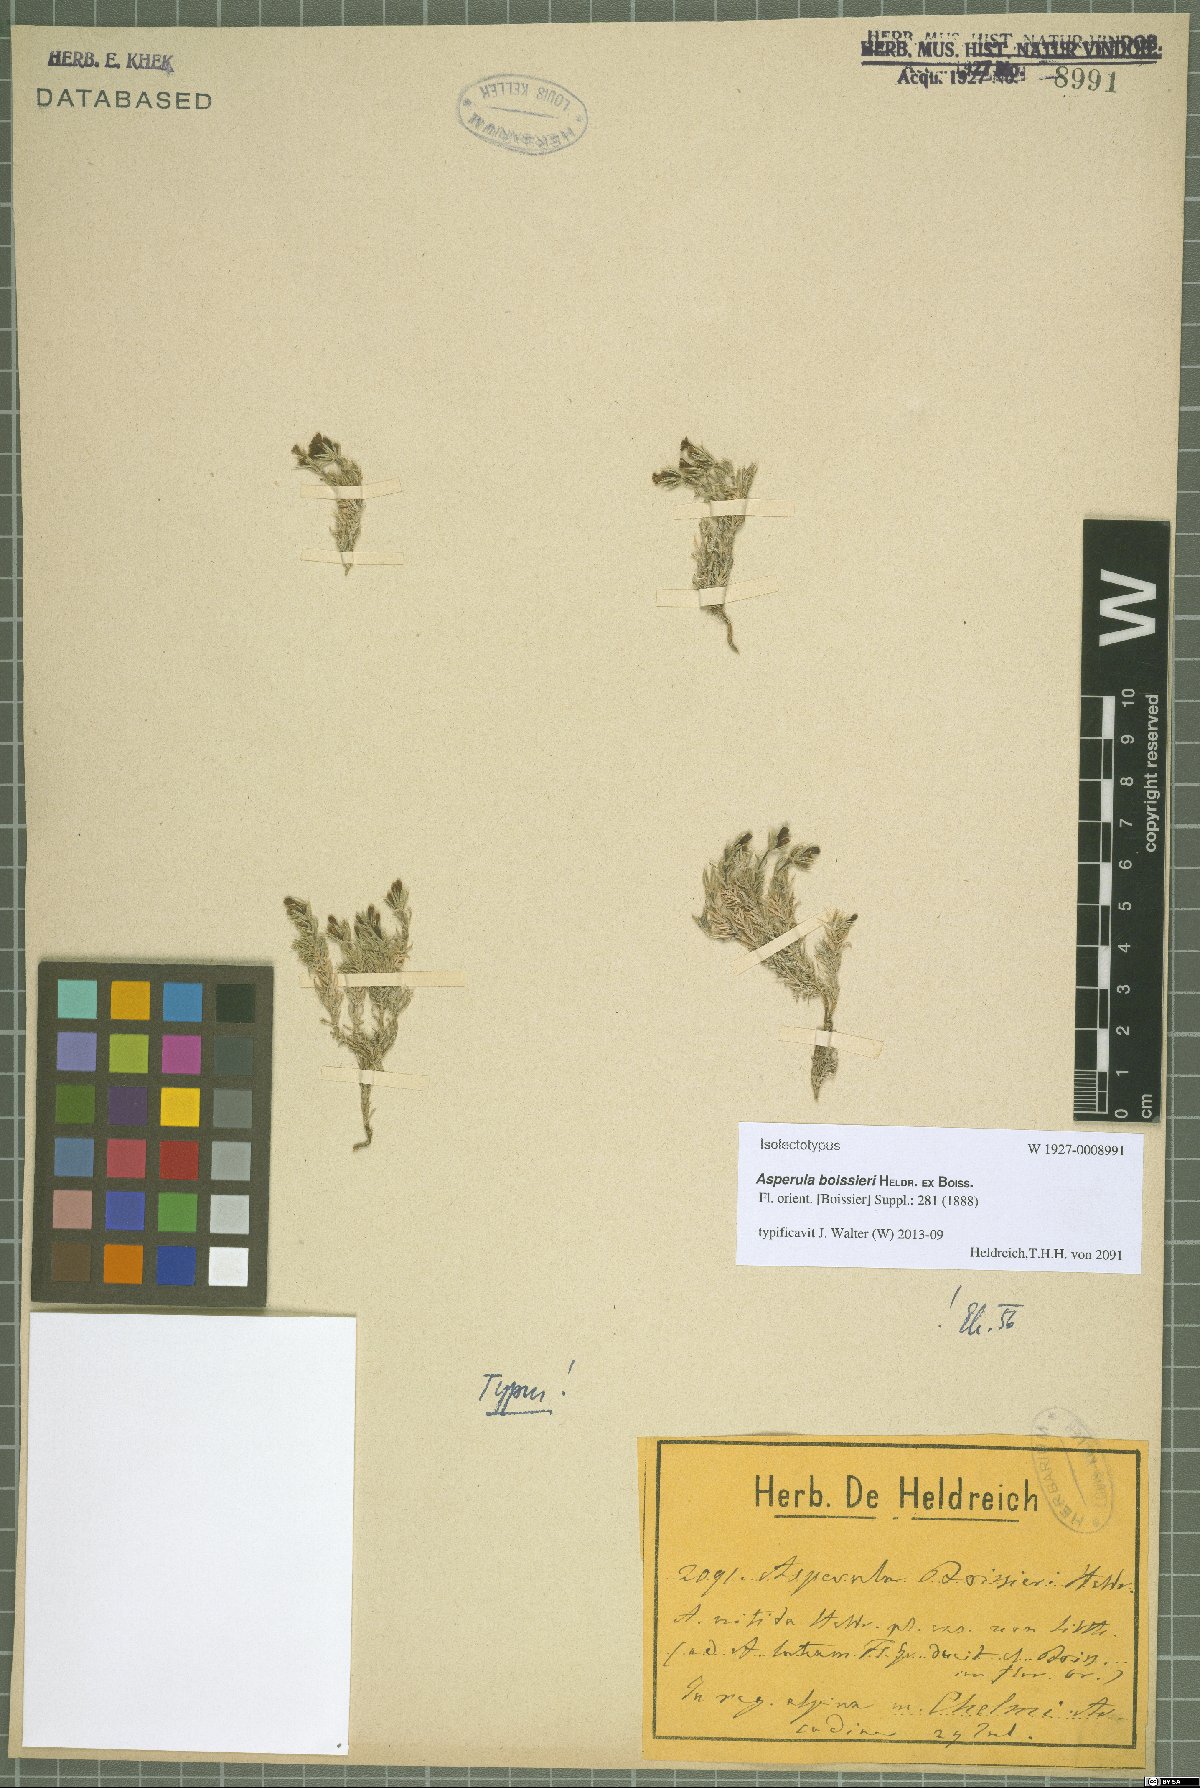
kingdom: Plantae
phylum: Tracheophyta
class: Magnoliopsida
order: Gentianales
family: Rubiaceae
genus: Cynanchica
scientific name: Cynanchica boissieri
